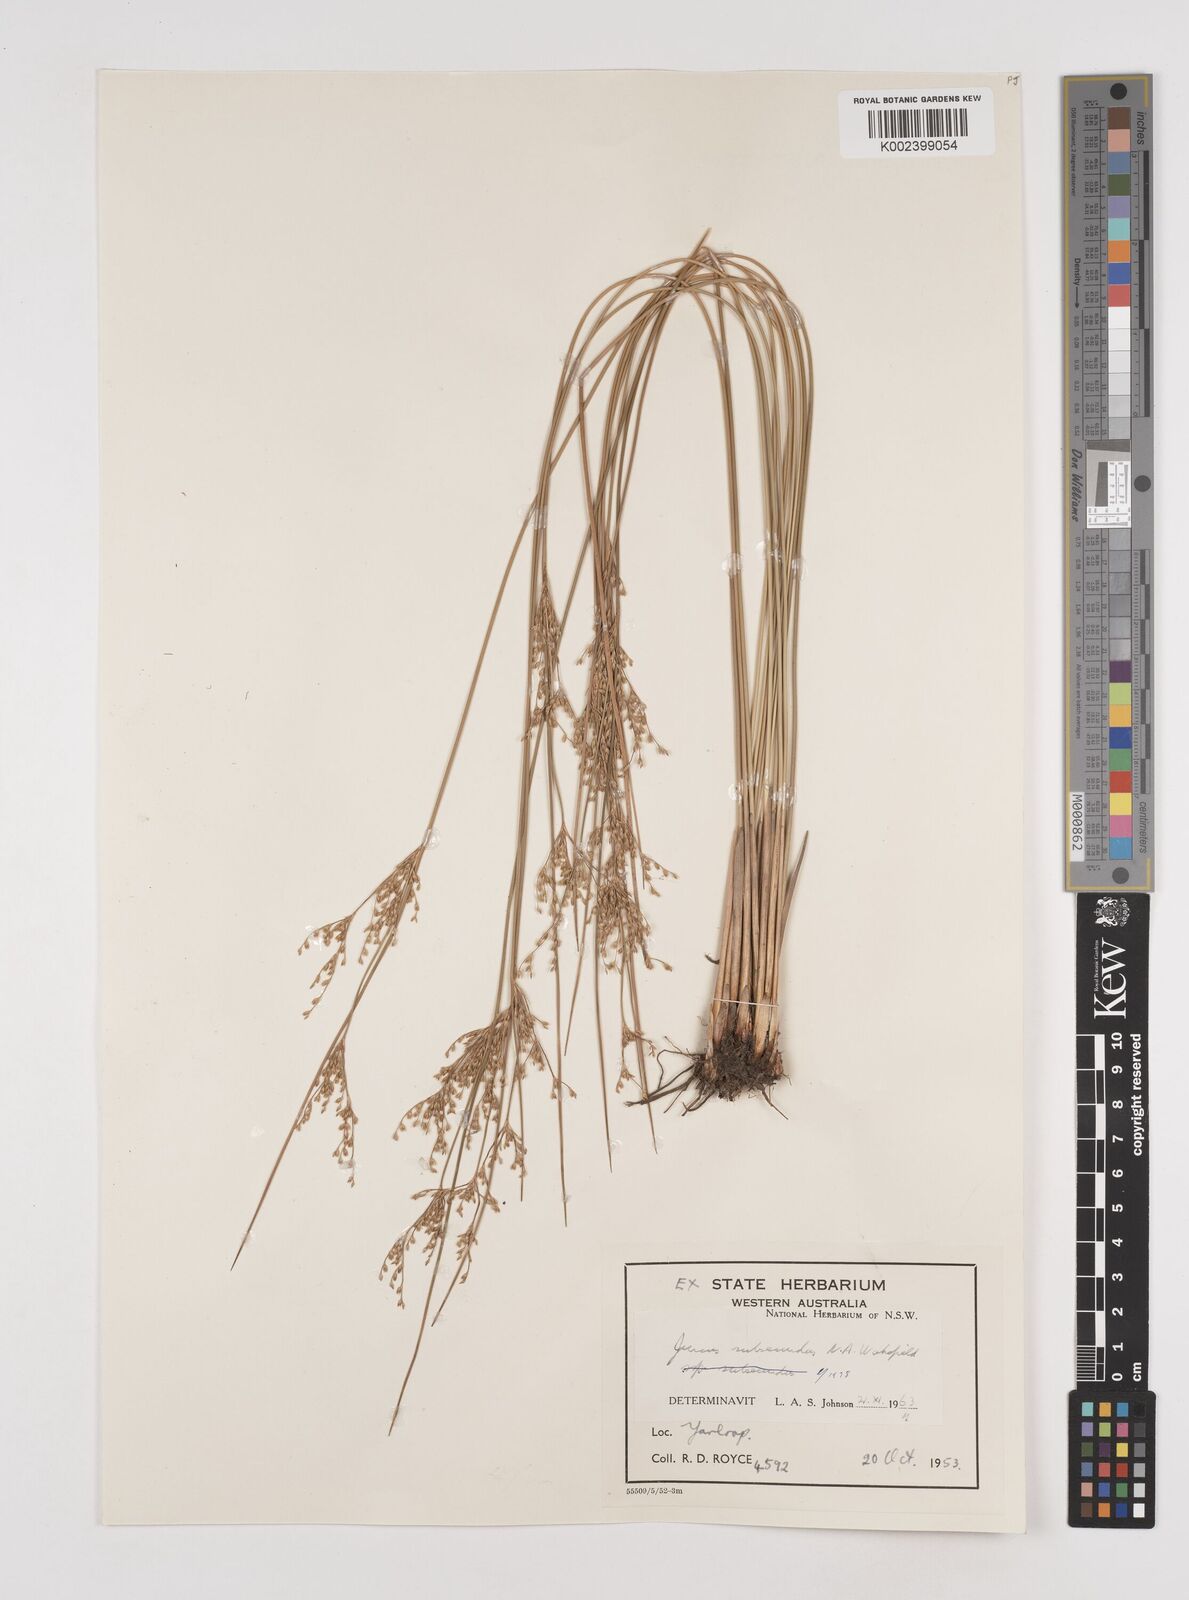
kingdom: Plantae
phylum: Tracheophyta
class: Liliopsida
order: Poales
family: Juncaceae
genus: Juncus
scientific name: Juncus subsecundus
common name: Fingered rush
